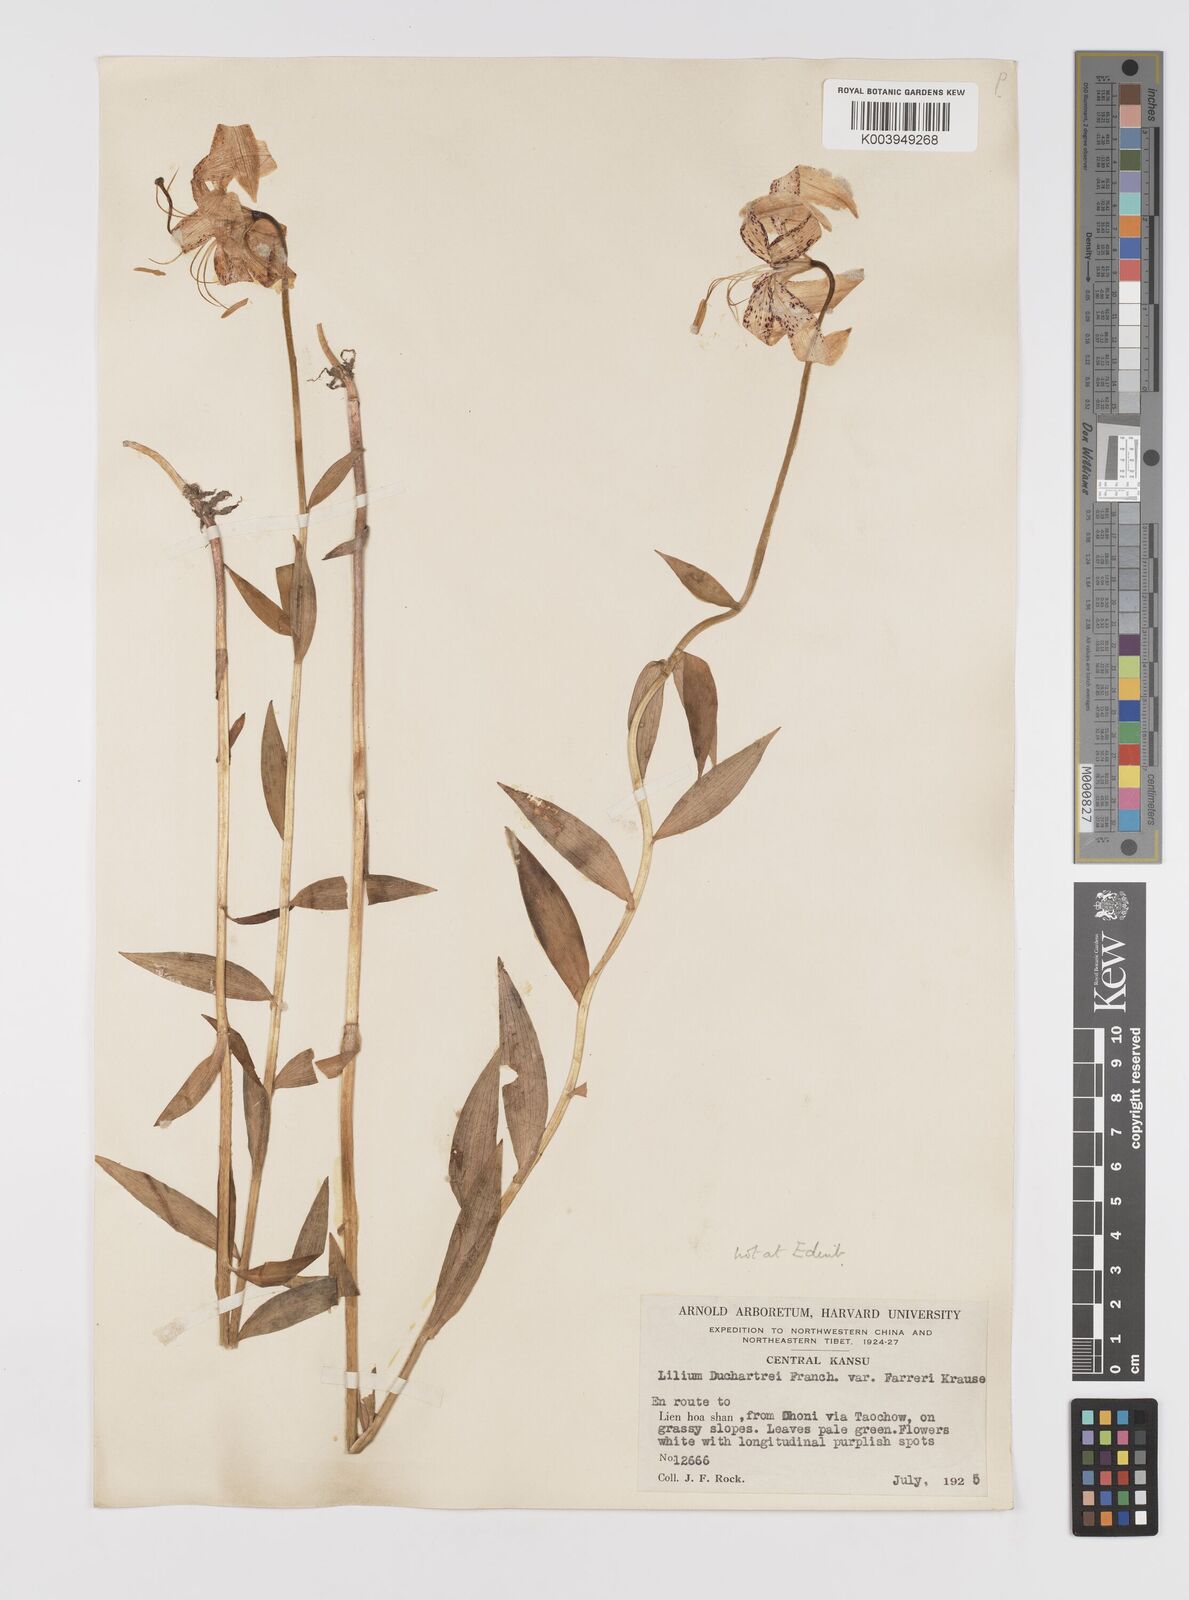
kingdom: Plantae
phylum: Tracheophyta
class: Liliopsida
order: Liliales
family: Liliaceae
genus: Lilium
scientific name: Lilium duchartrei
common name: Duchartre lily
